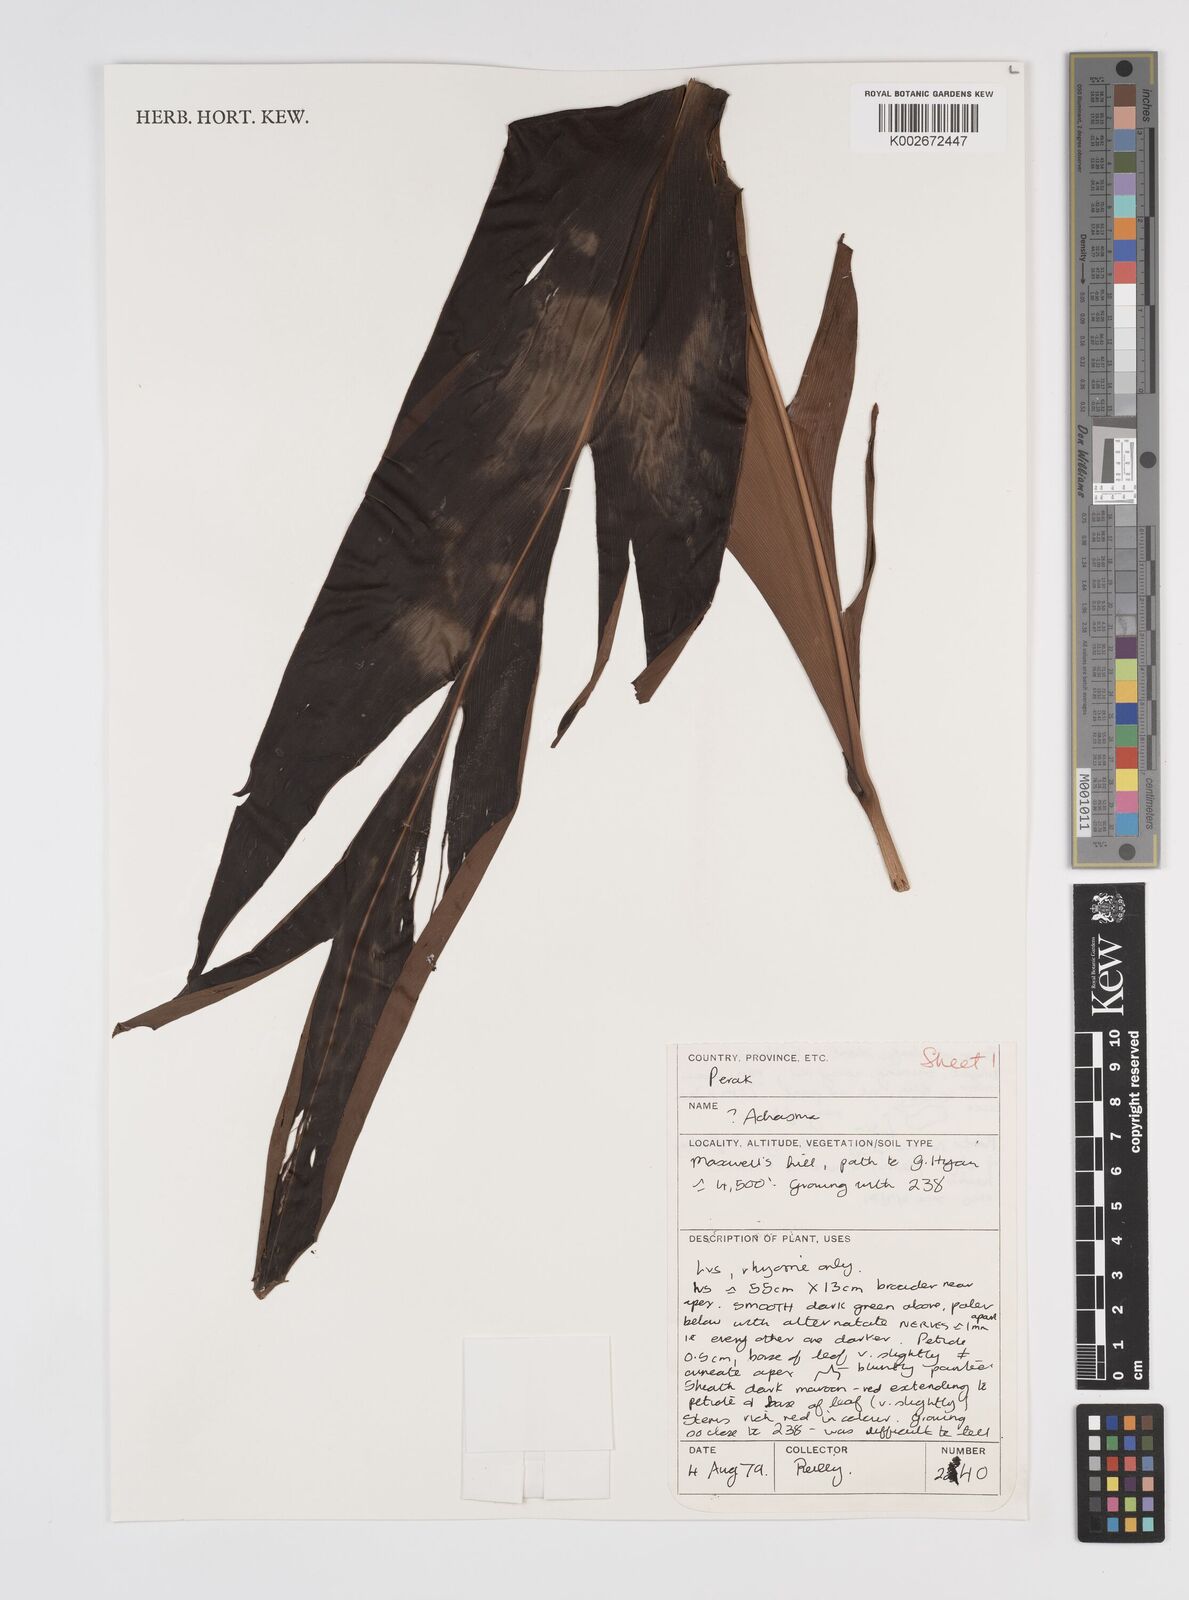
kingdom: Plantae
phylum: Tracheophyta
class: Liliopsida
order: Zingiberales
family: Zingiberaceae
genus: Etlingera
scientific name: Etlingera littoralis
